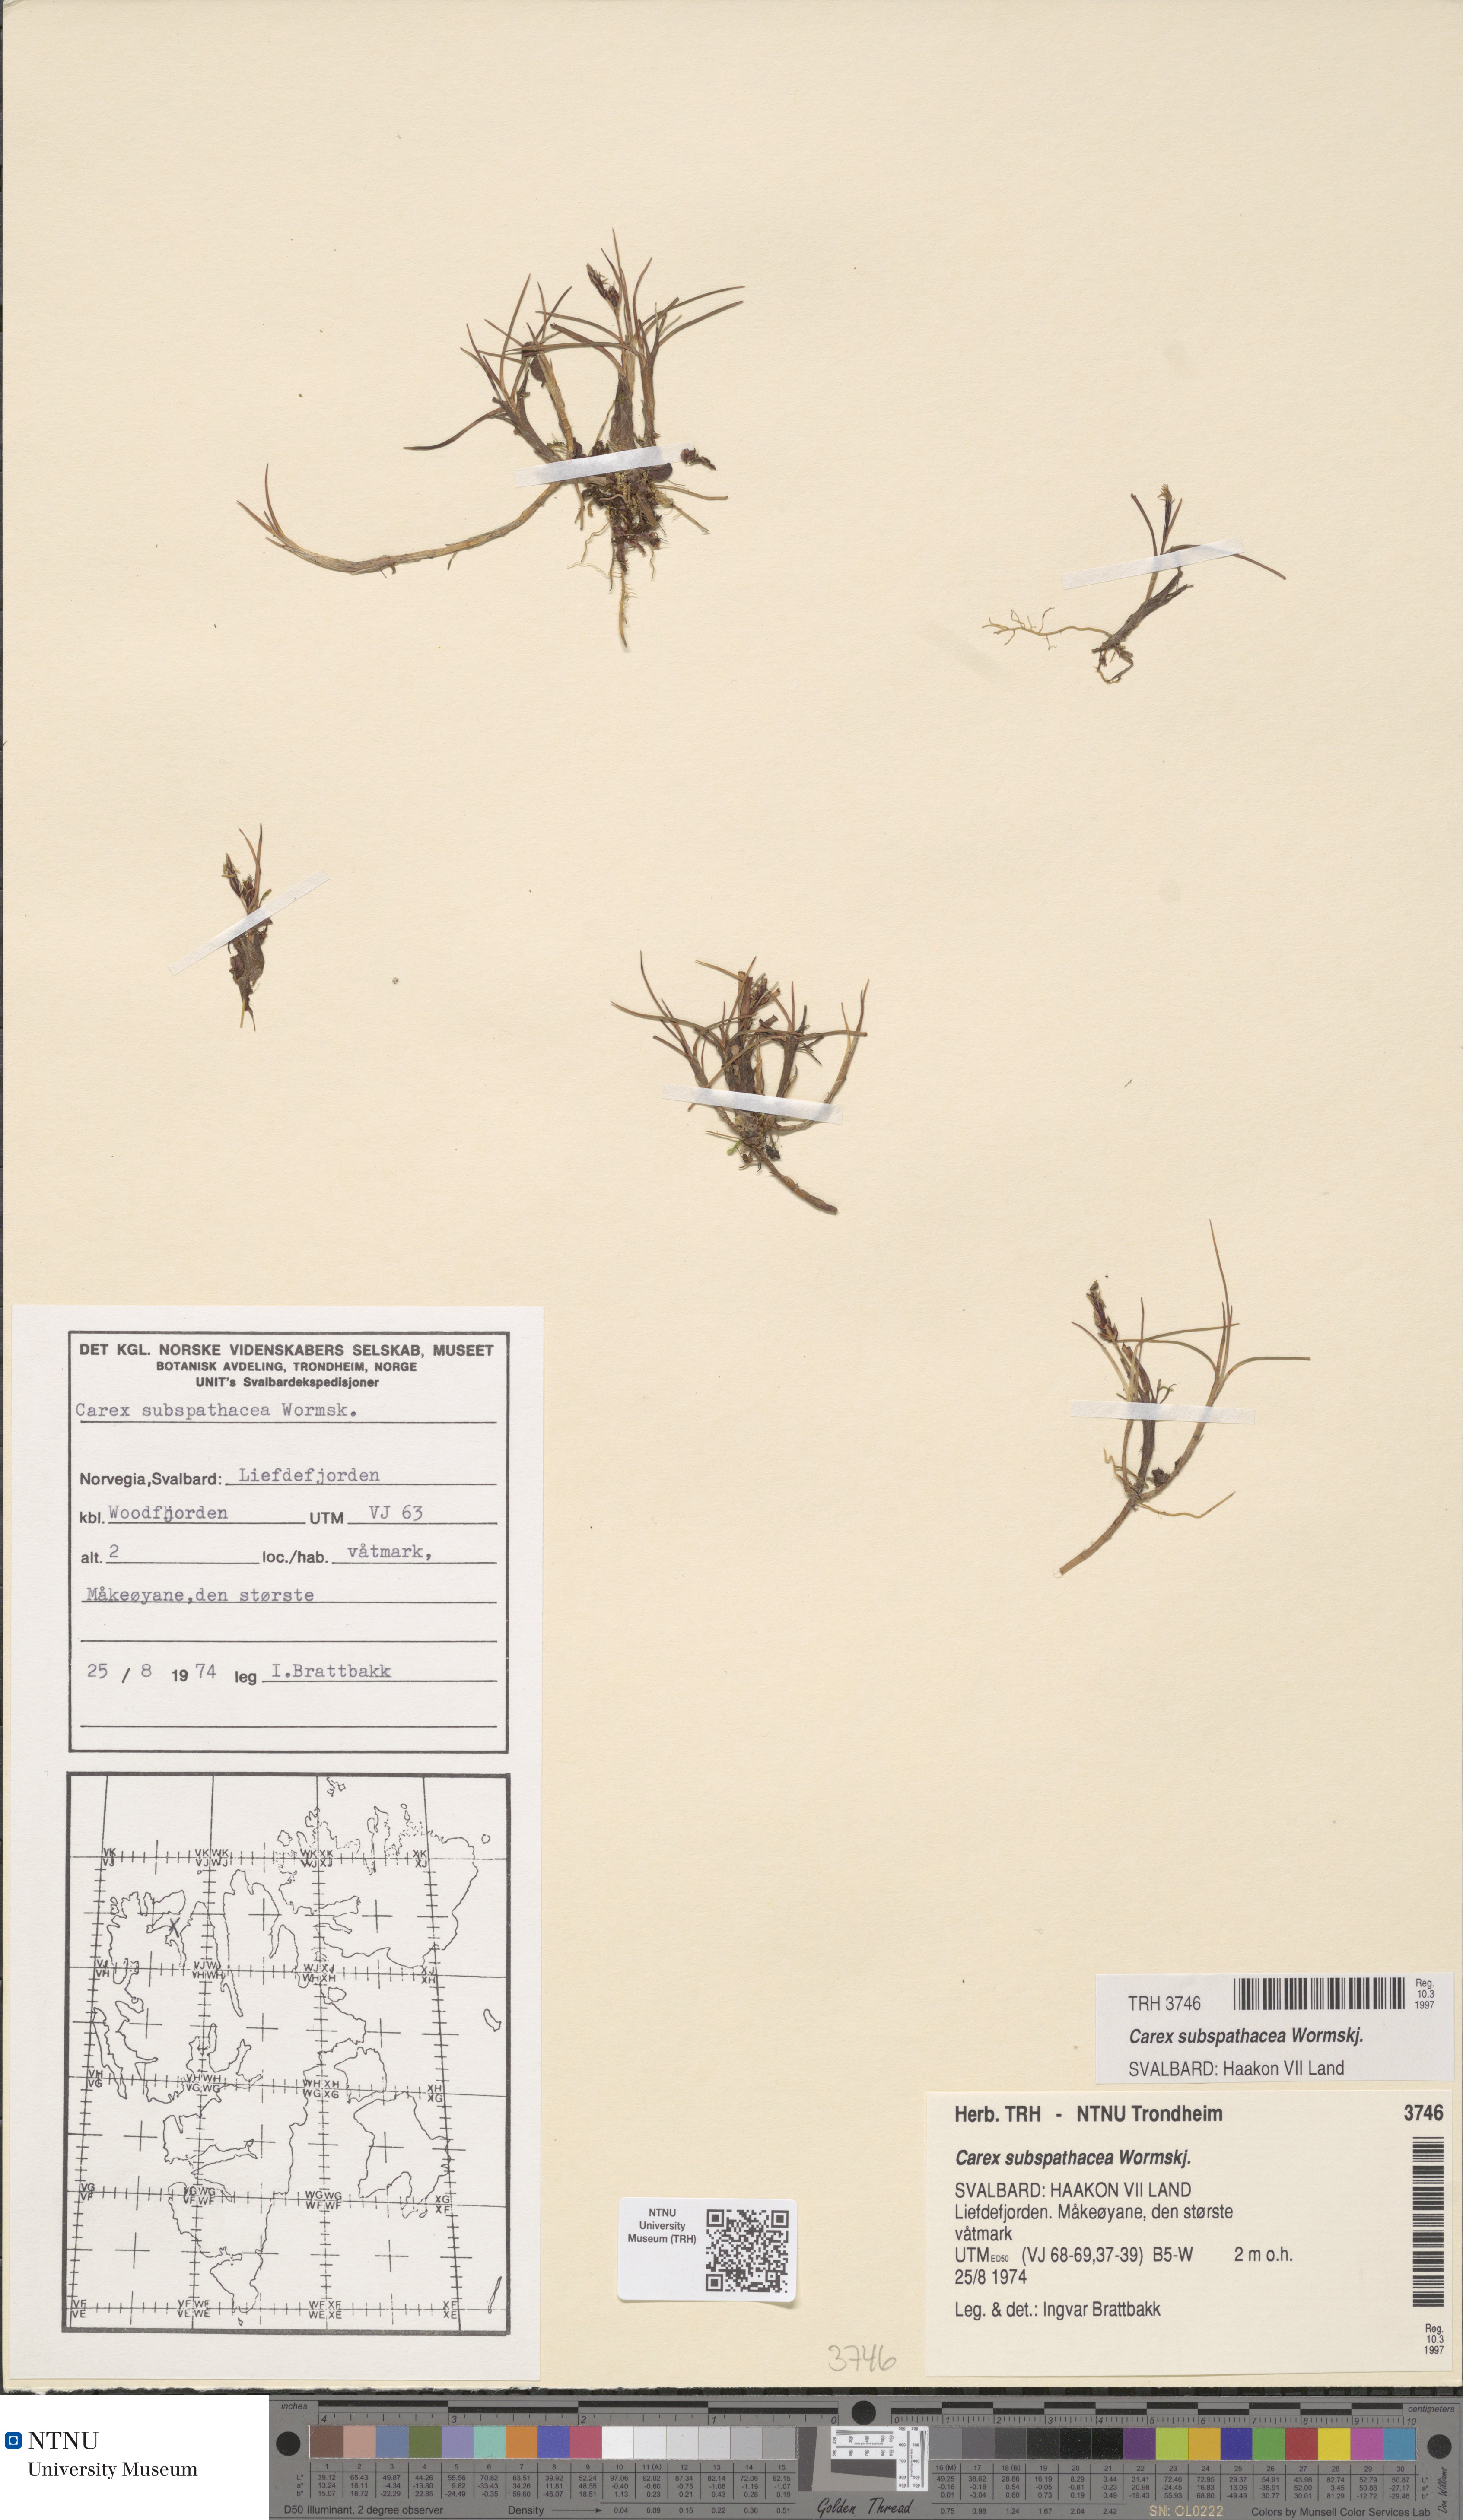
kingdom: Plantae
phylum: Tracheophyta
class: Liliopsida
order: Poales
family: Cyperaceae
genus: Carex
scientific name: Carex subspathacea
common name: Hoppner's sedge
